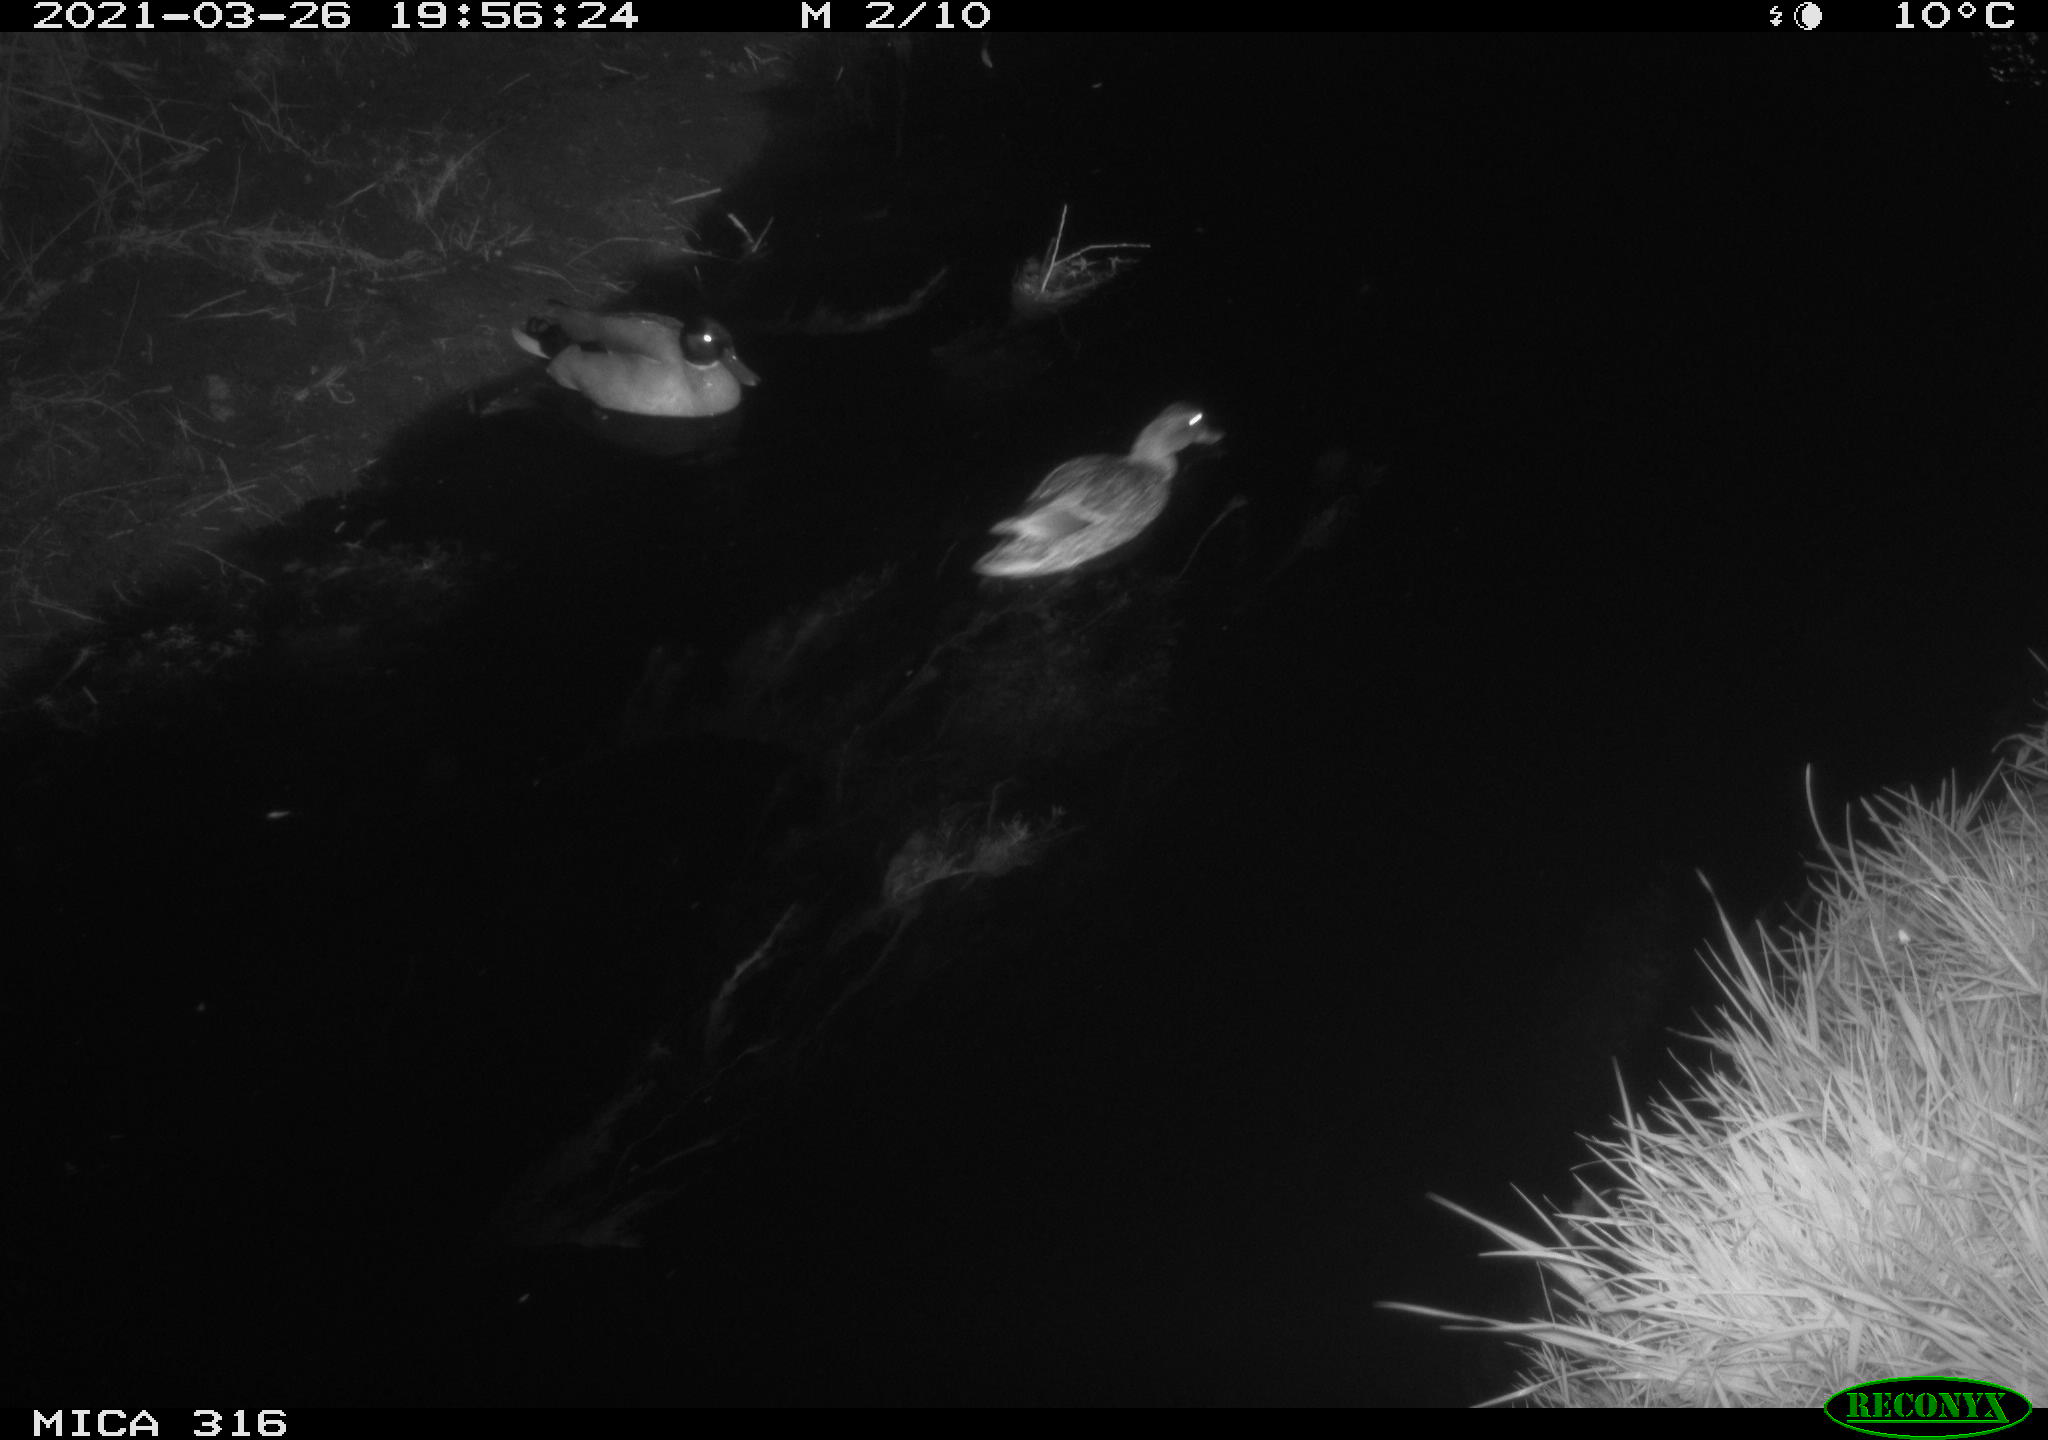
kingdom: Animalia
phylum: Chordata
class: Aves
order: Anseriformes
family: Anatidae
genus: Anas
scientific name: Anas platyrhynchos
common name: Mallard
